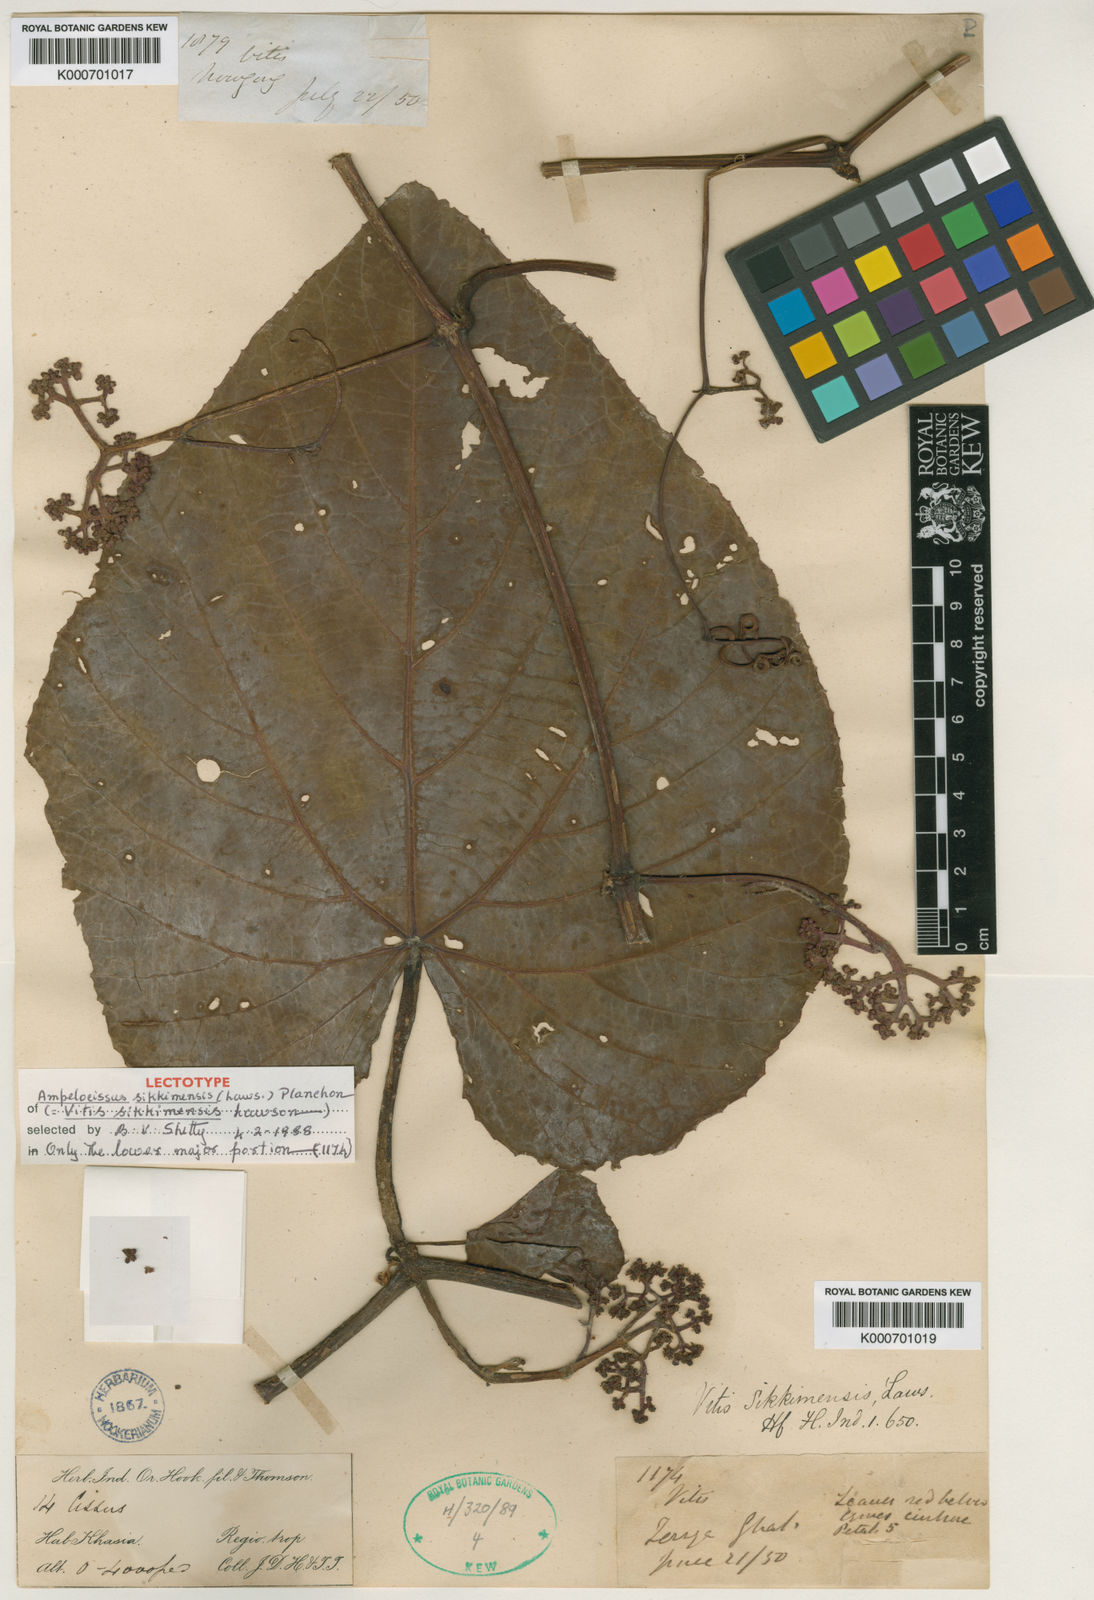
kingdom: Plantae
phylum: Tracheophyta
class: Magnoliopsida
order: Vitales
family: Vitaceae
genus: Ampelocissus
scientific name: Ampelocissus sikkimensis
